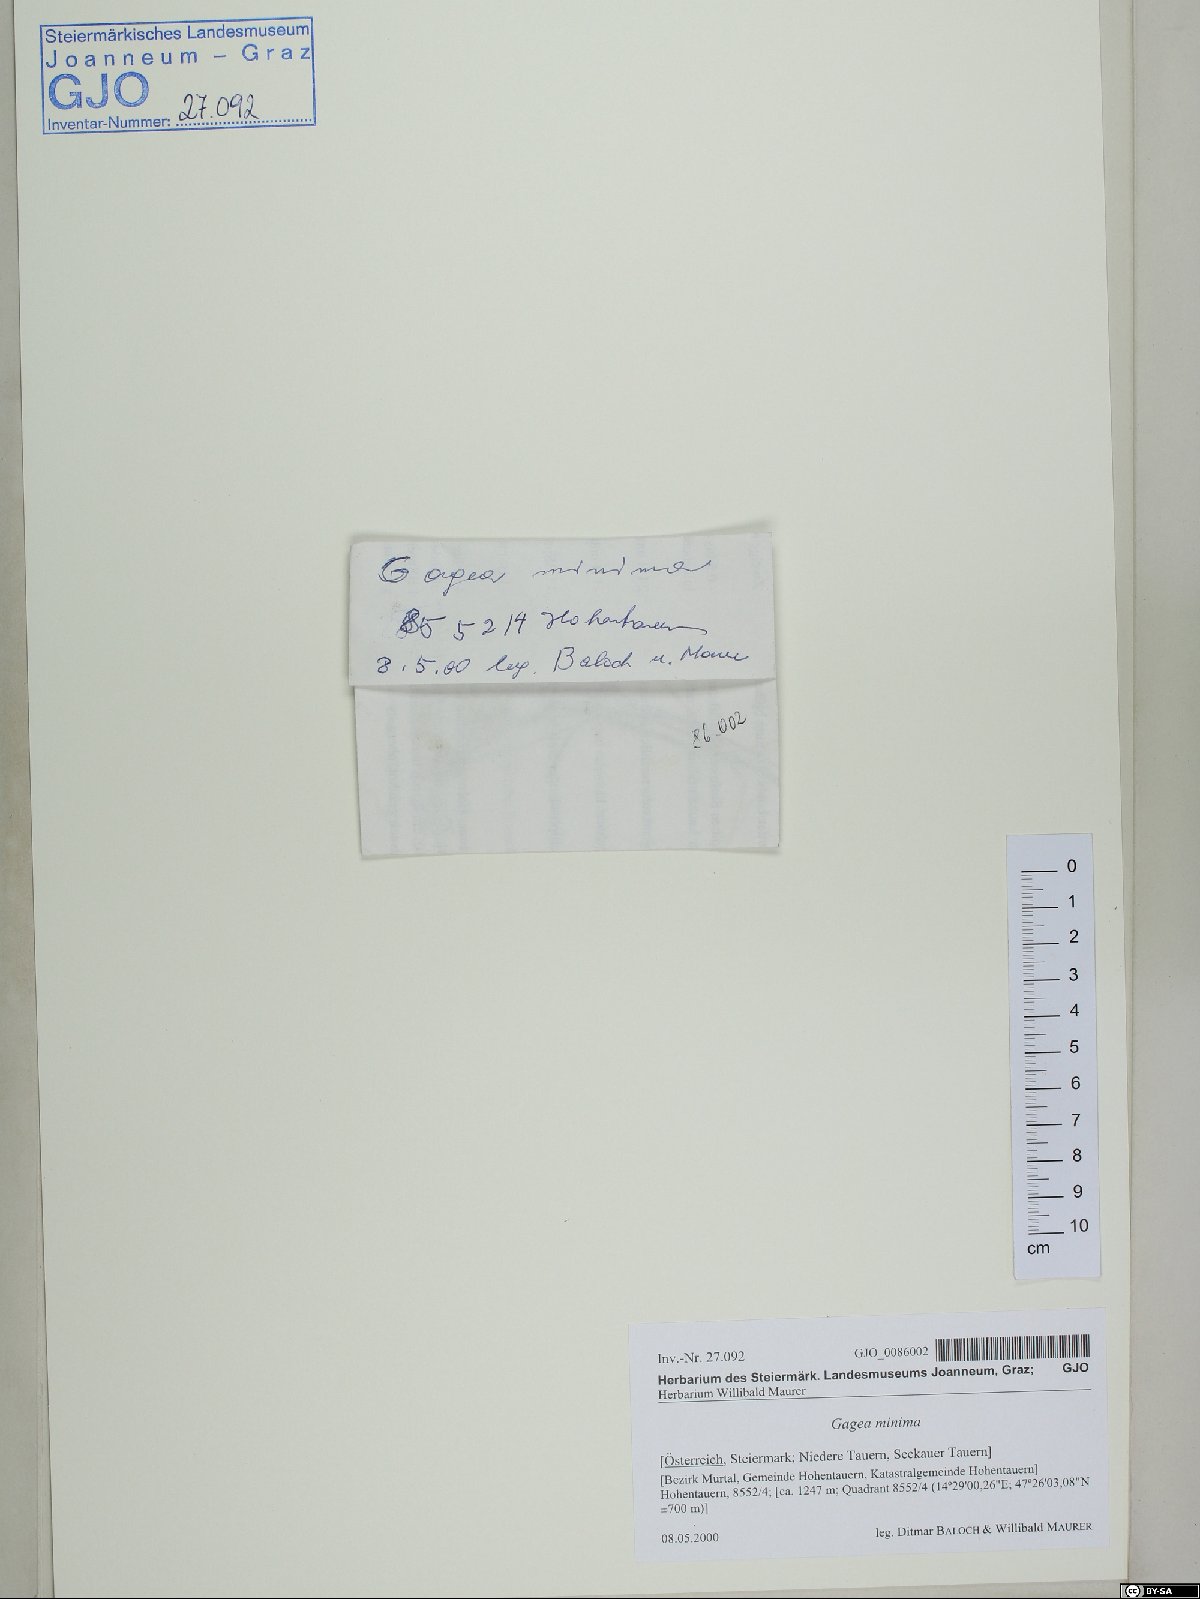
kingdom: Plantae
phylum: Tracheophyta
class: Liliopsida
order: Liliales
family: Liliaceae
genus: Gagea
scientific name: Gagea minima
